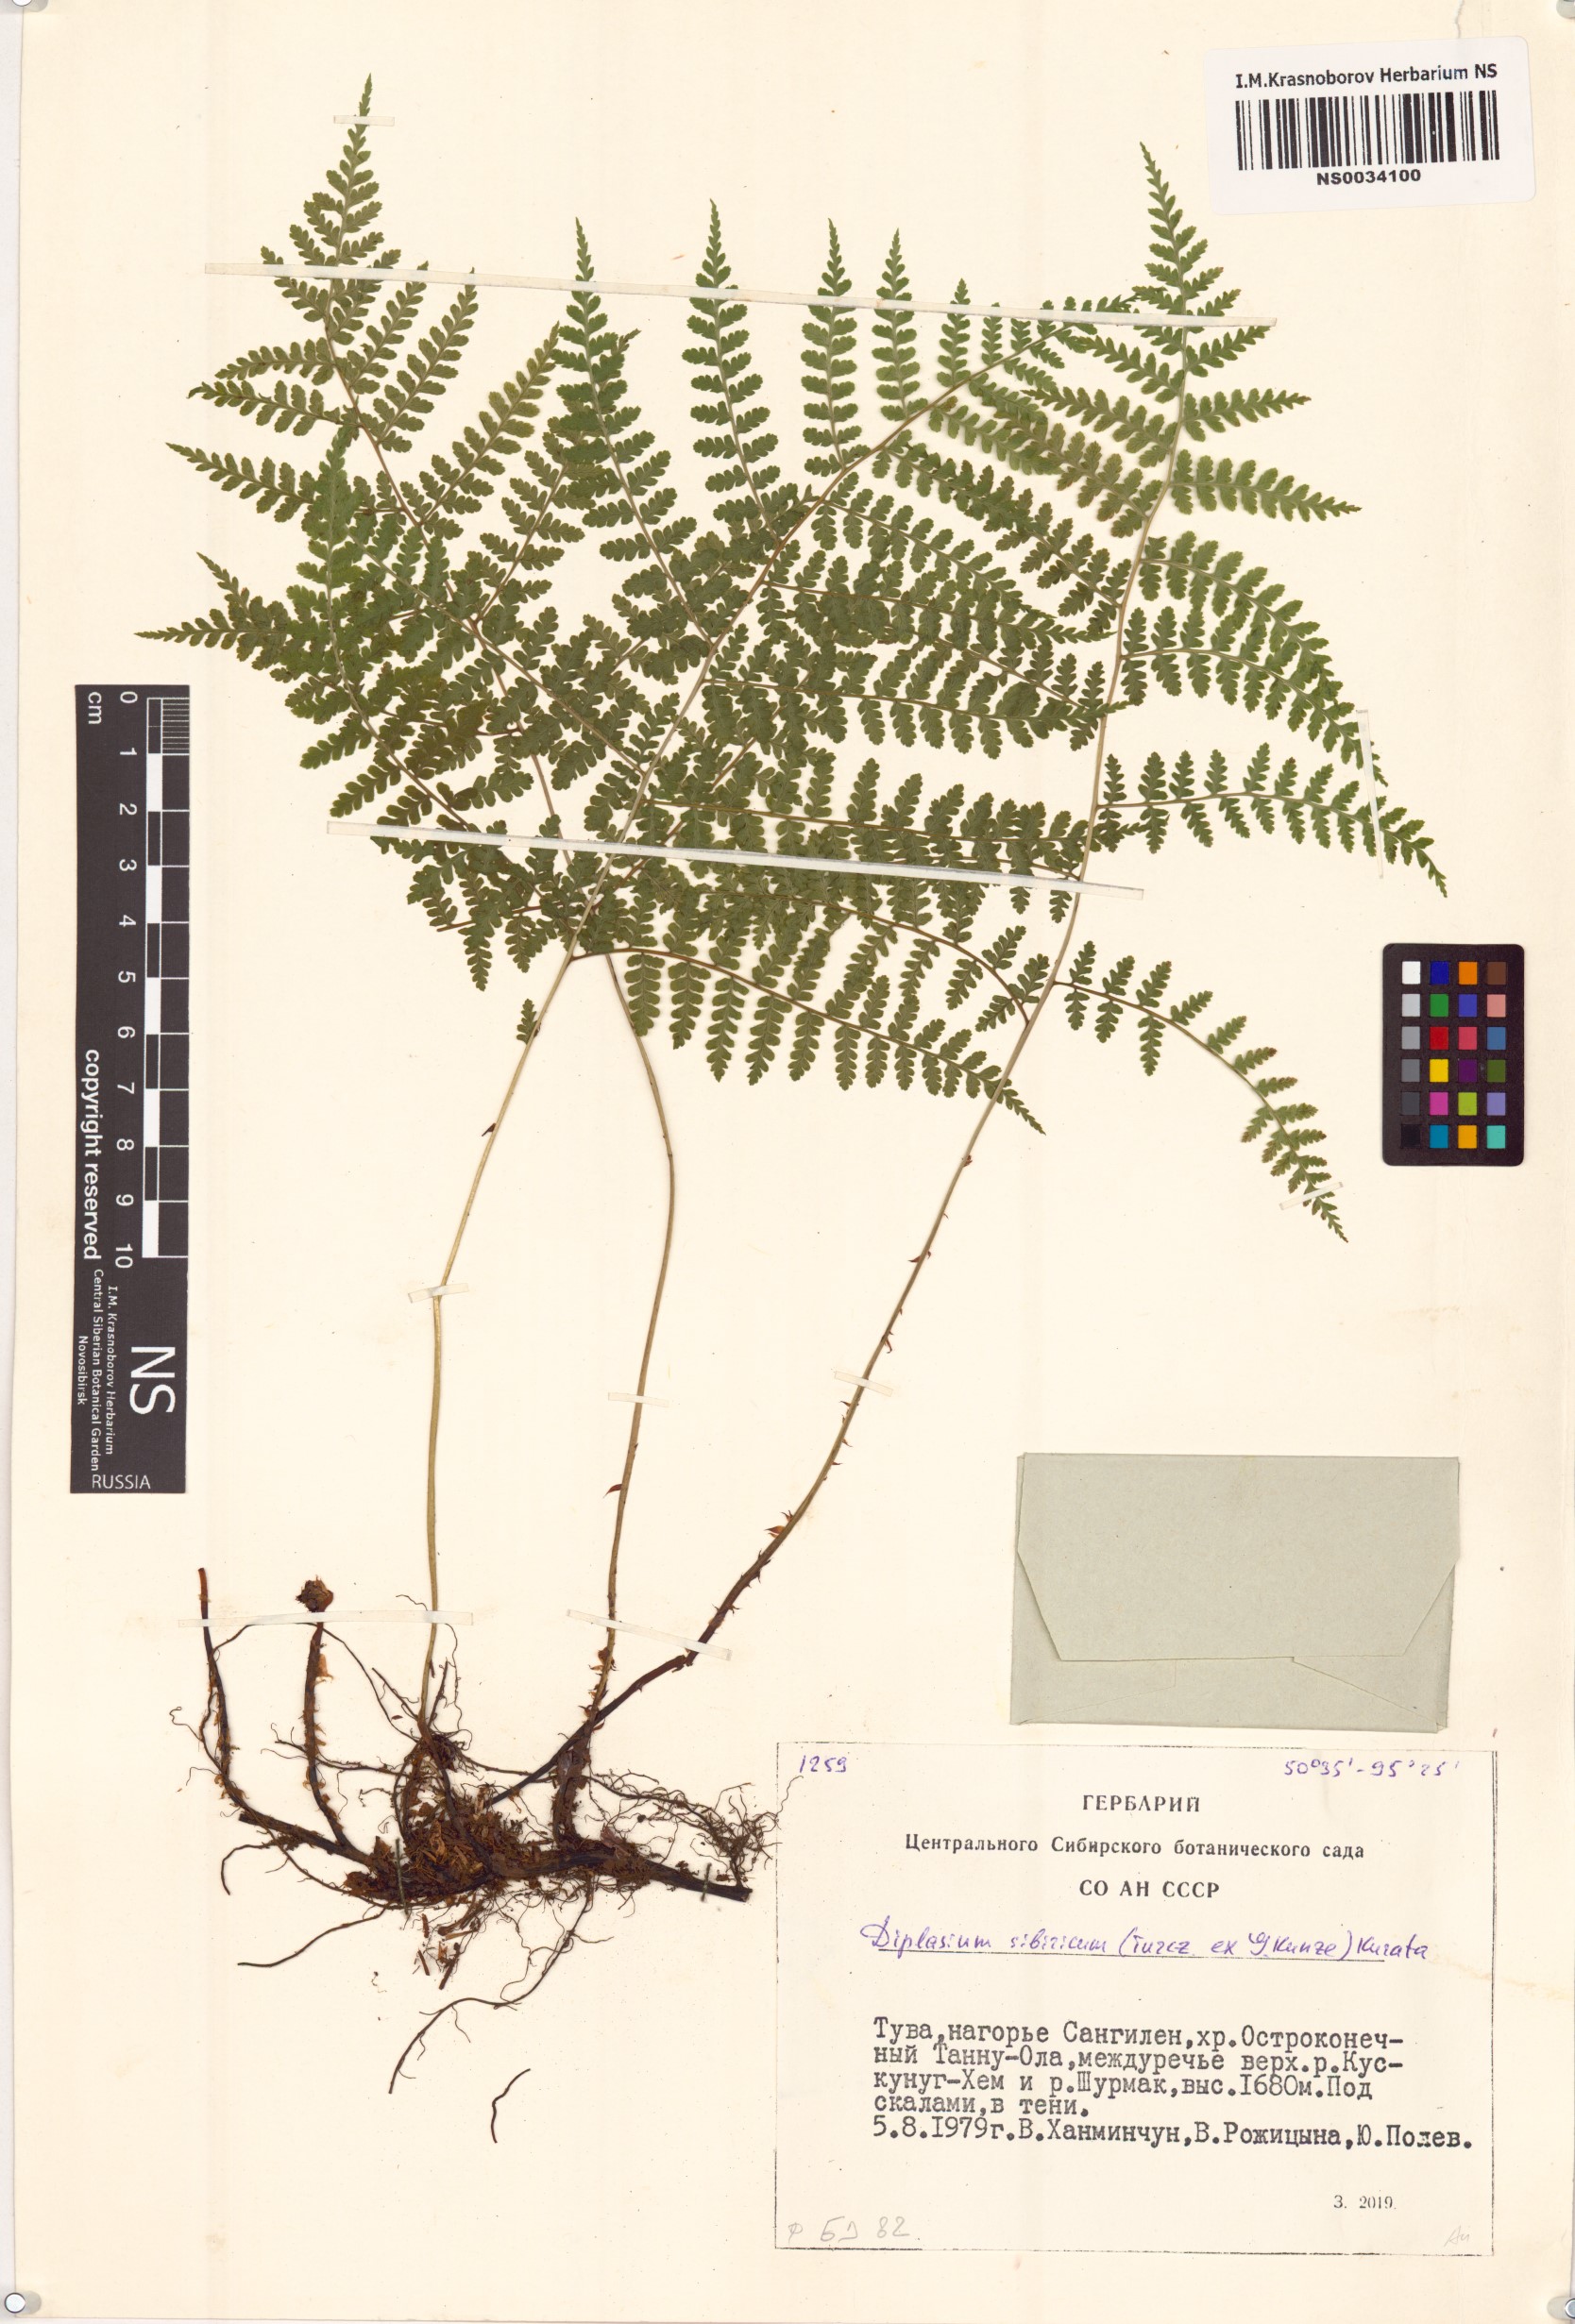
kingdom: Plantae
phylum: Tracheophyta
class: Polypodiopsida
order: Polypodiales
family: Athyriaceae
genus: Diplazium
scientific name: Diplazium sibiricum
